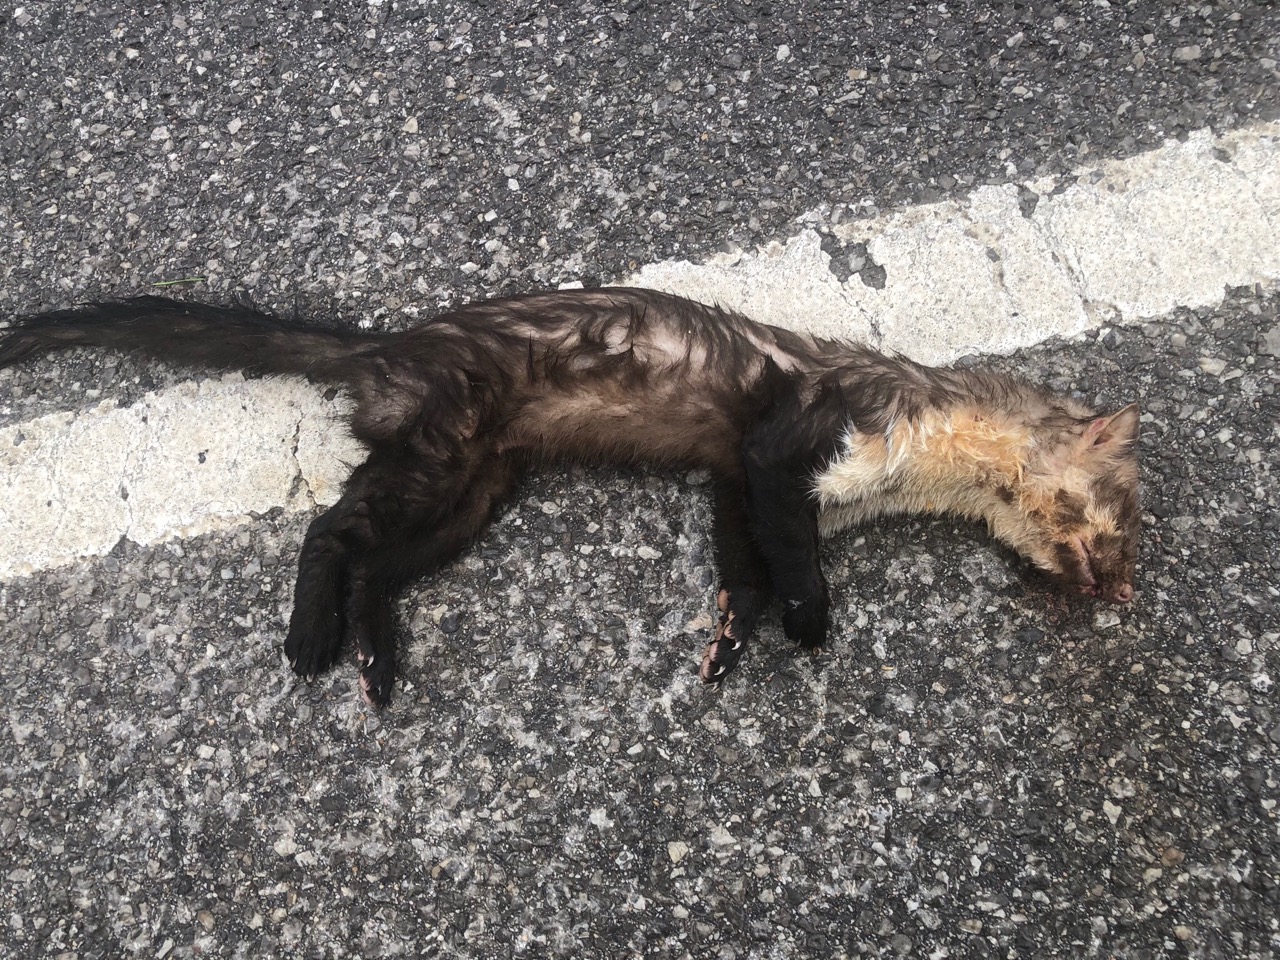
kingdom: Animalia
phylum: Chordata
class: Mammalia
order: Carnivora
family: Mustelidae
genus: Martes
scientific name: Martes foina
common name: Beech marten
